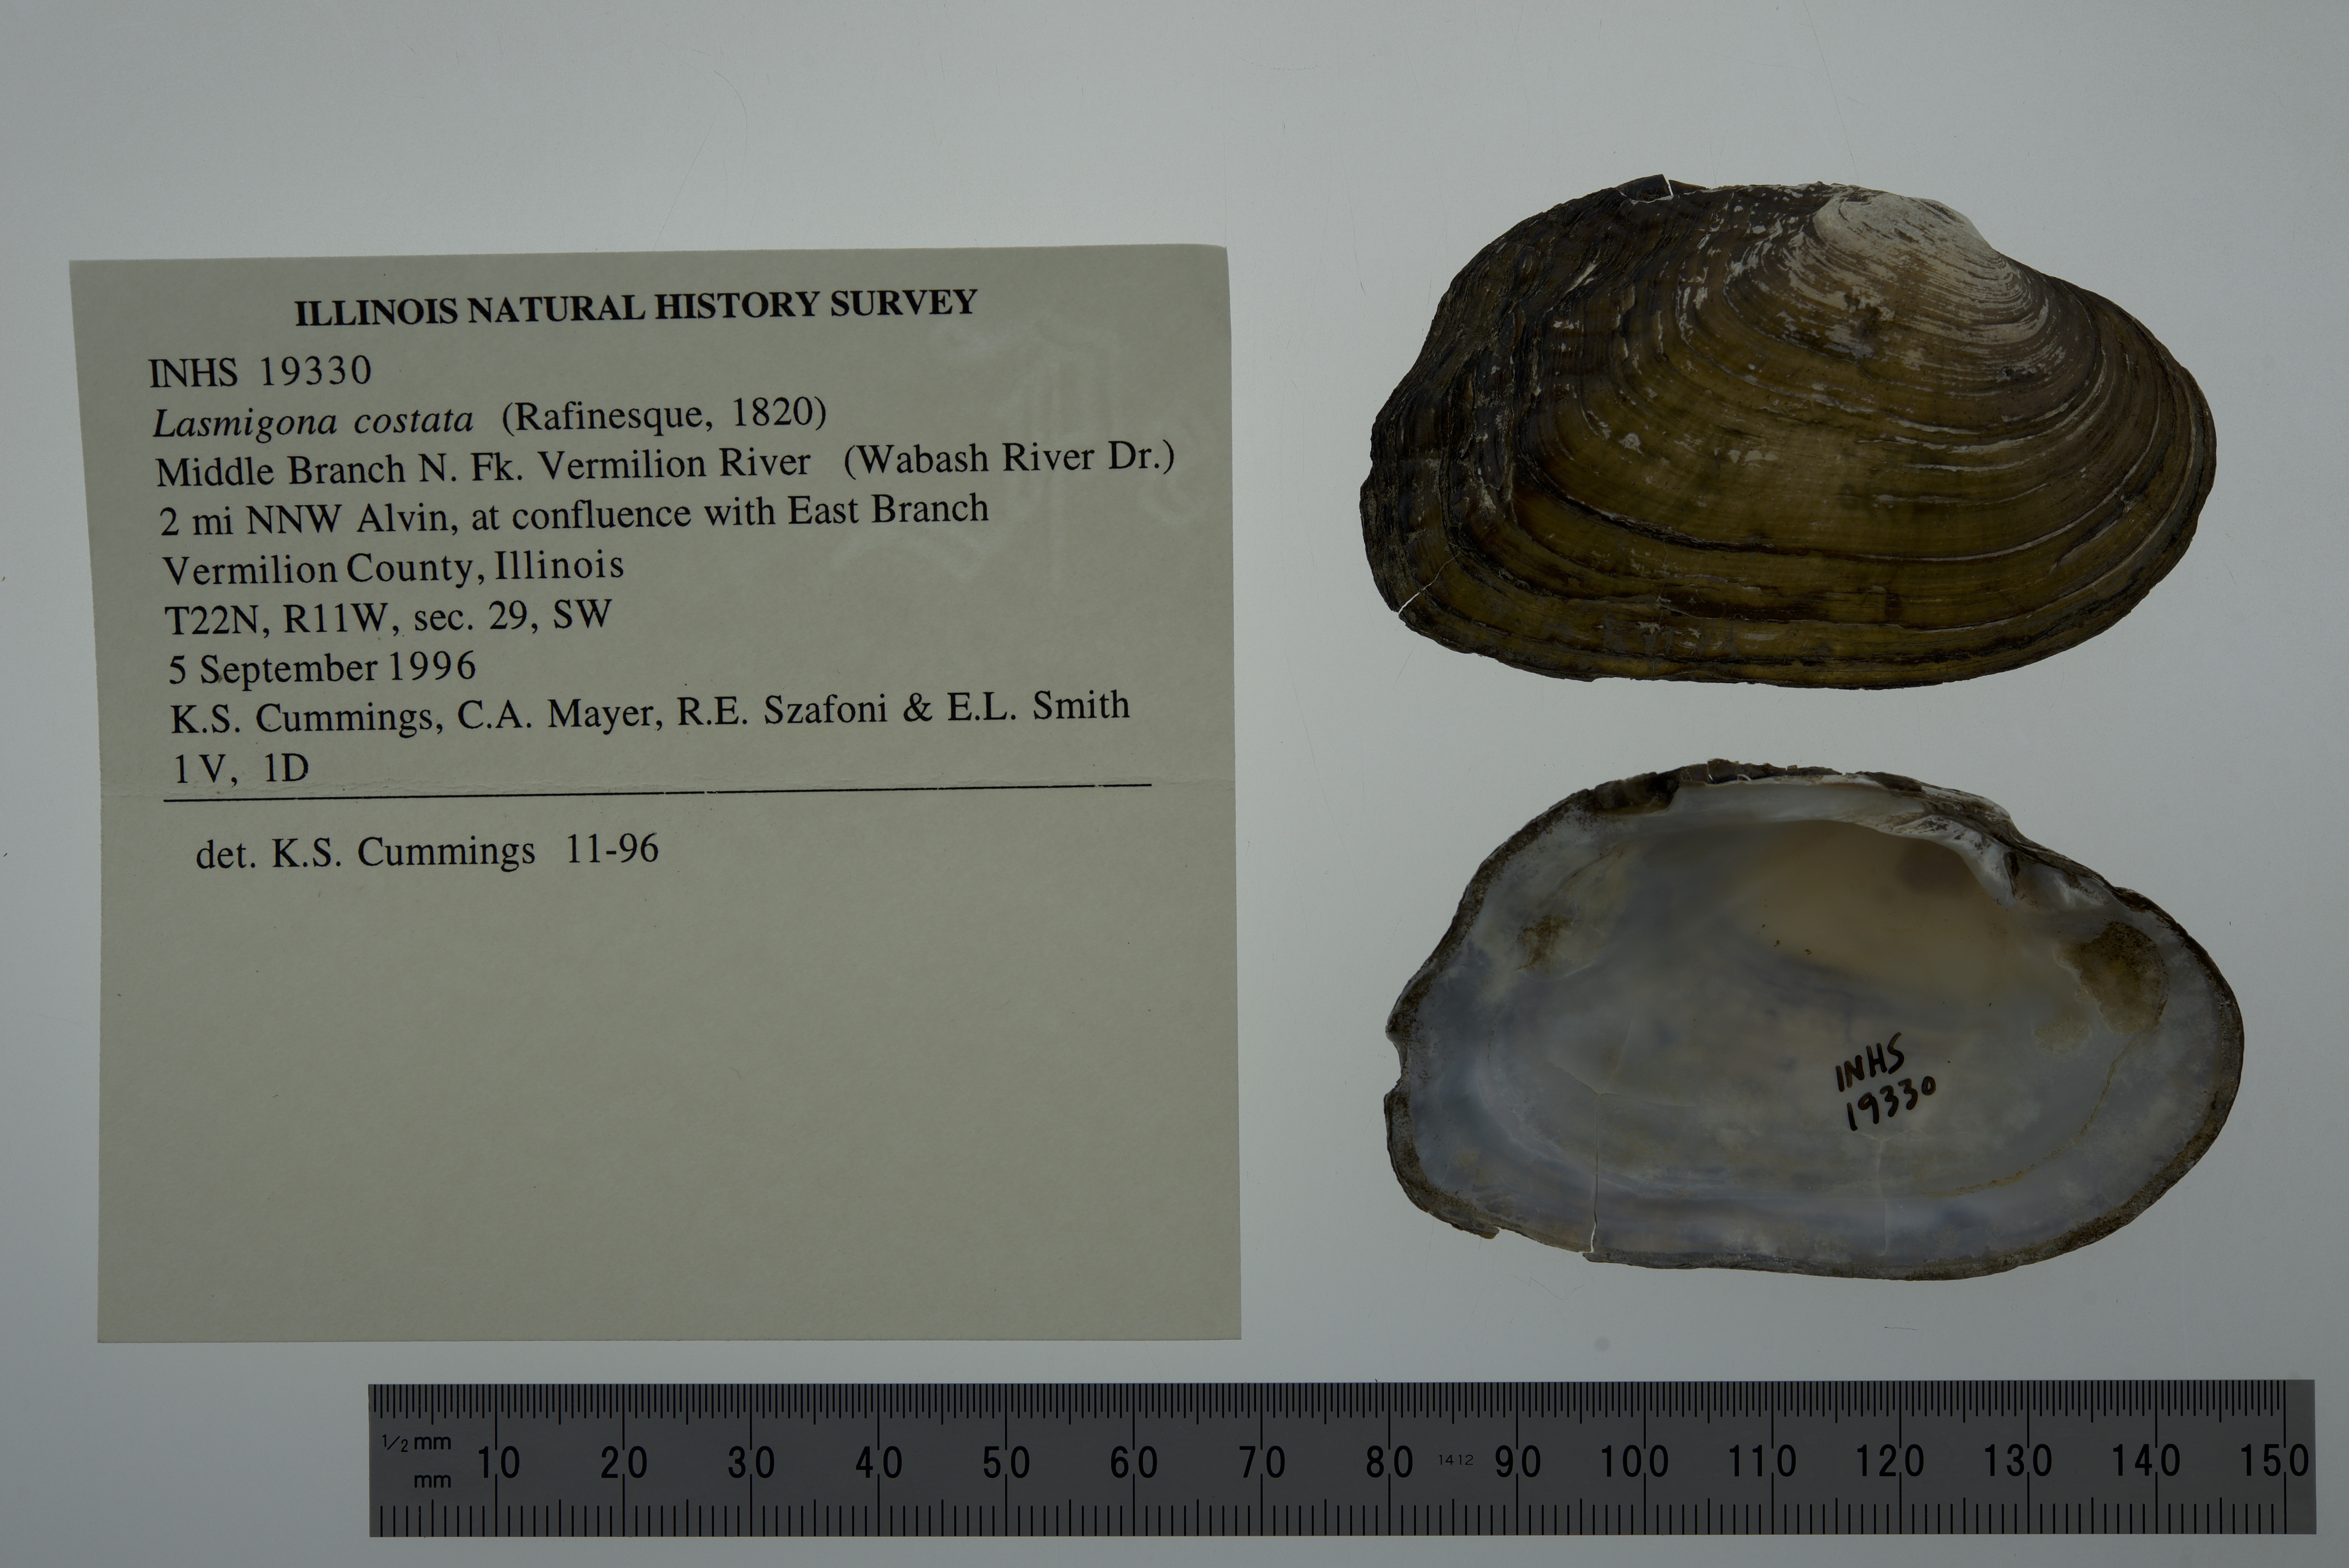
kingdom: Animalia
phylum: Mollusca
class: Bivalvia
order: Unionida
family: Unionidae
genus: Lasmigona
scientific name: Lasmigona costata
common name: Flutedshell
